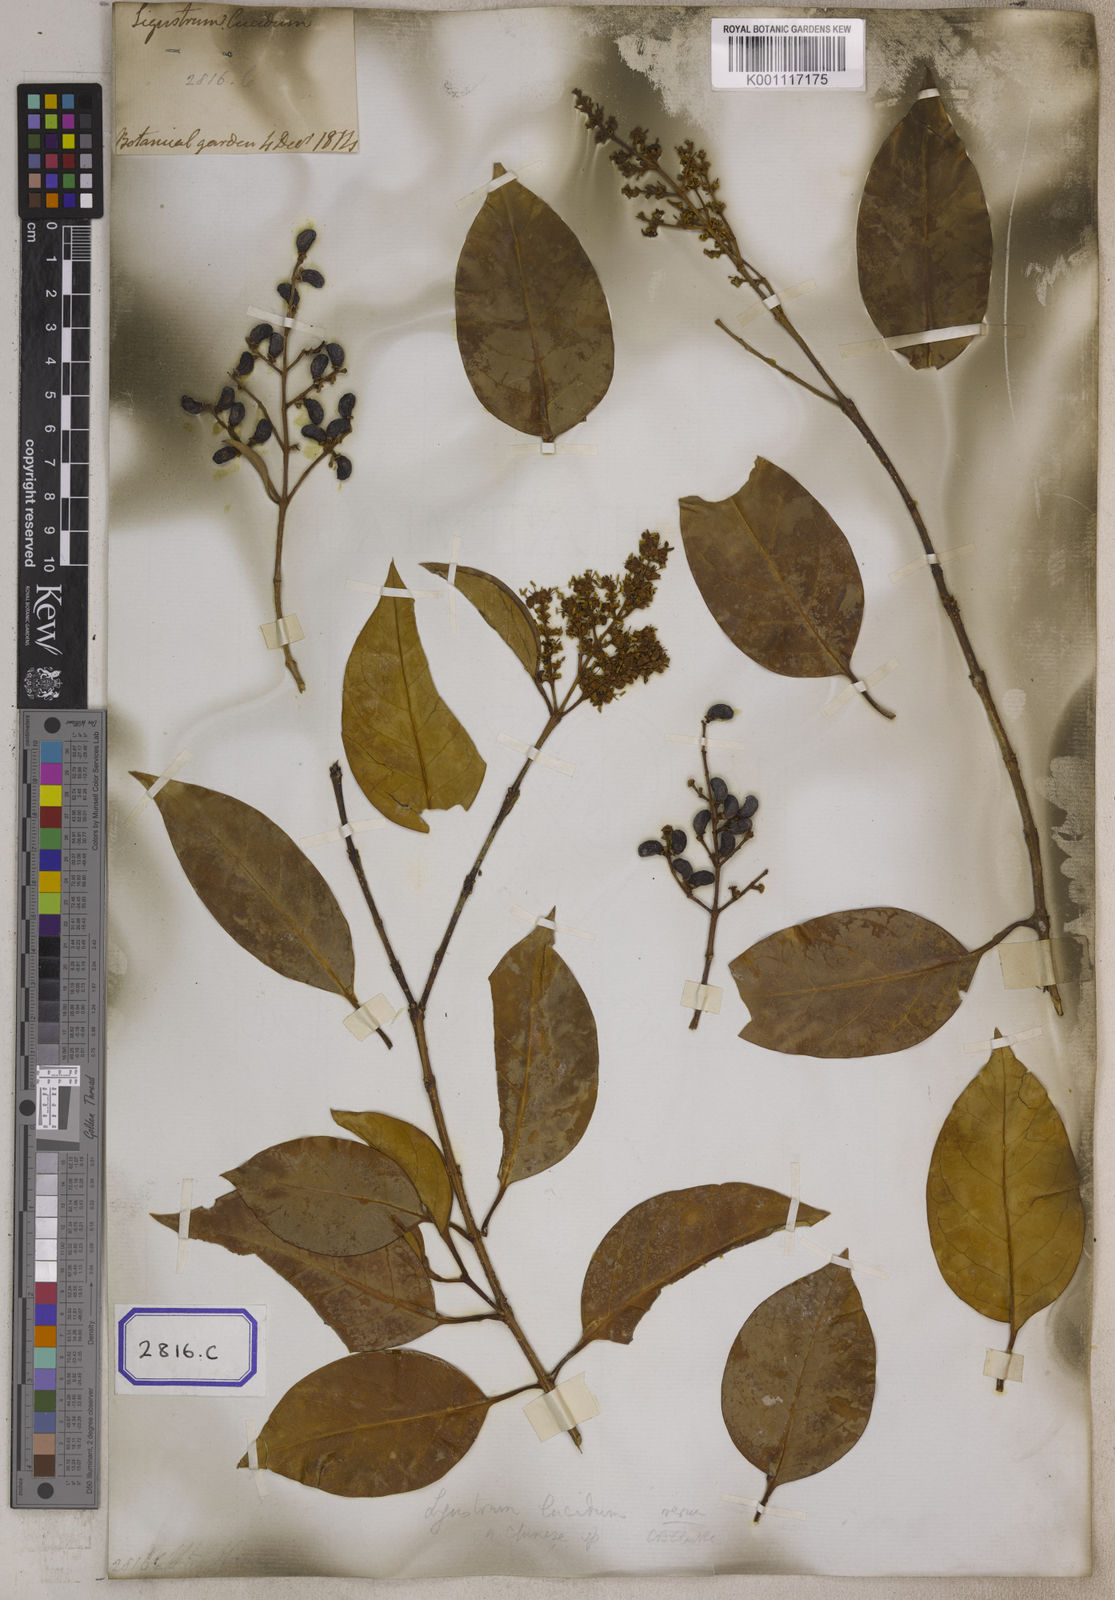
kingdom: Plantae
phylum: Tracheophyta
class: Magnoliopsida
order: Lamiales
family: Oleaceae
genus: Olea
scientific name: Olea
